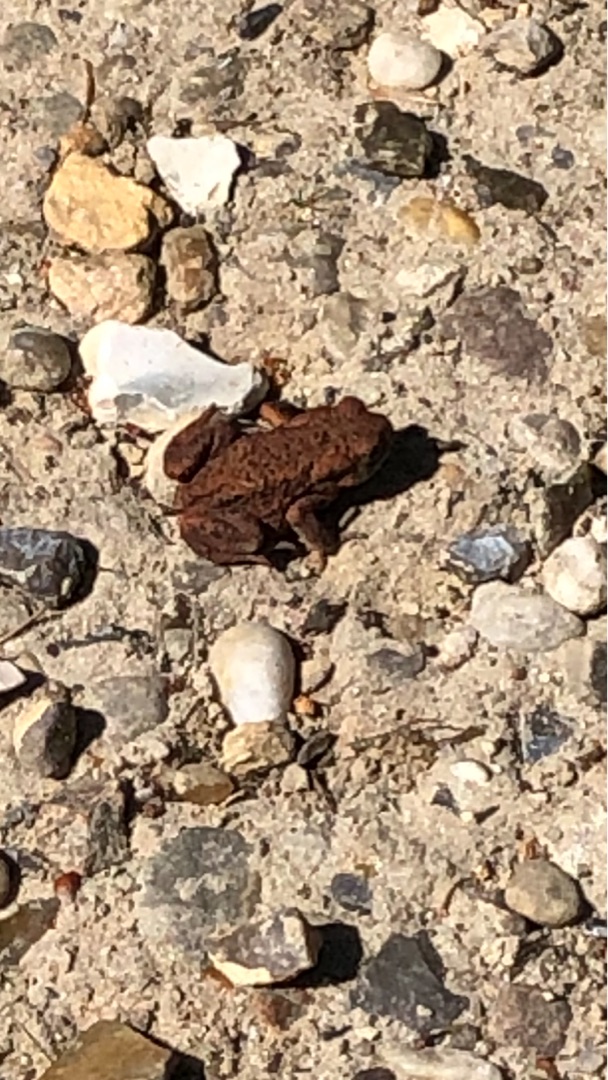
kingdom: Animalia
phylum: Chordata
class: Amphibia
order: Anura
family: Bufonidae
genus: Bufo
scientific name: Bufo bufo
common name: Skrubtudse
